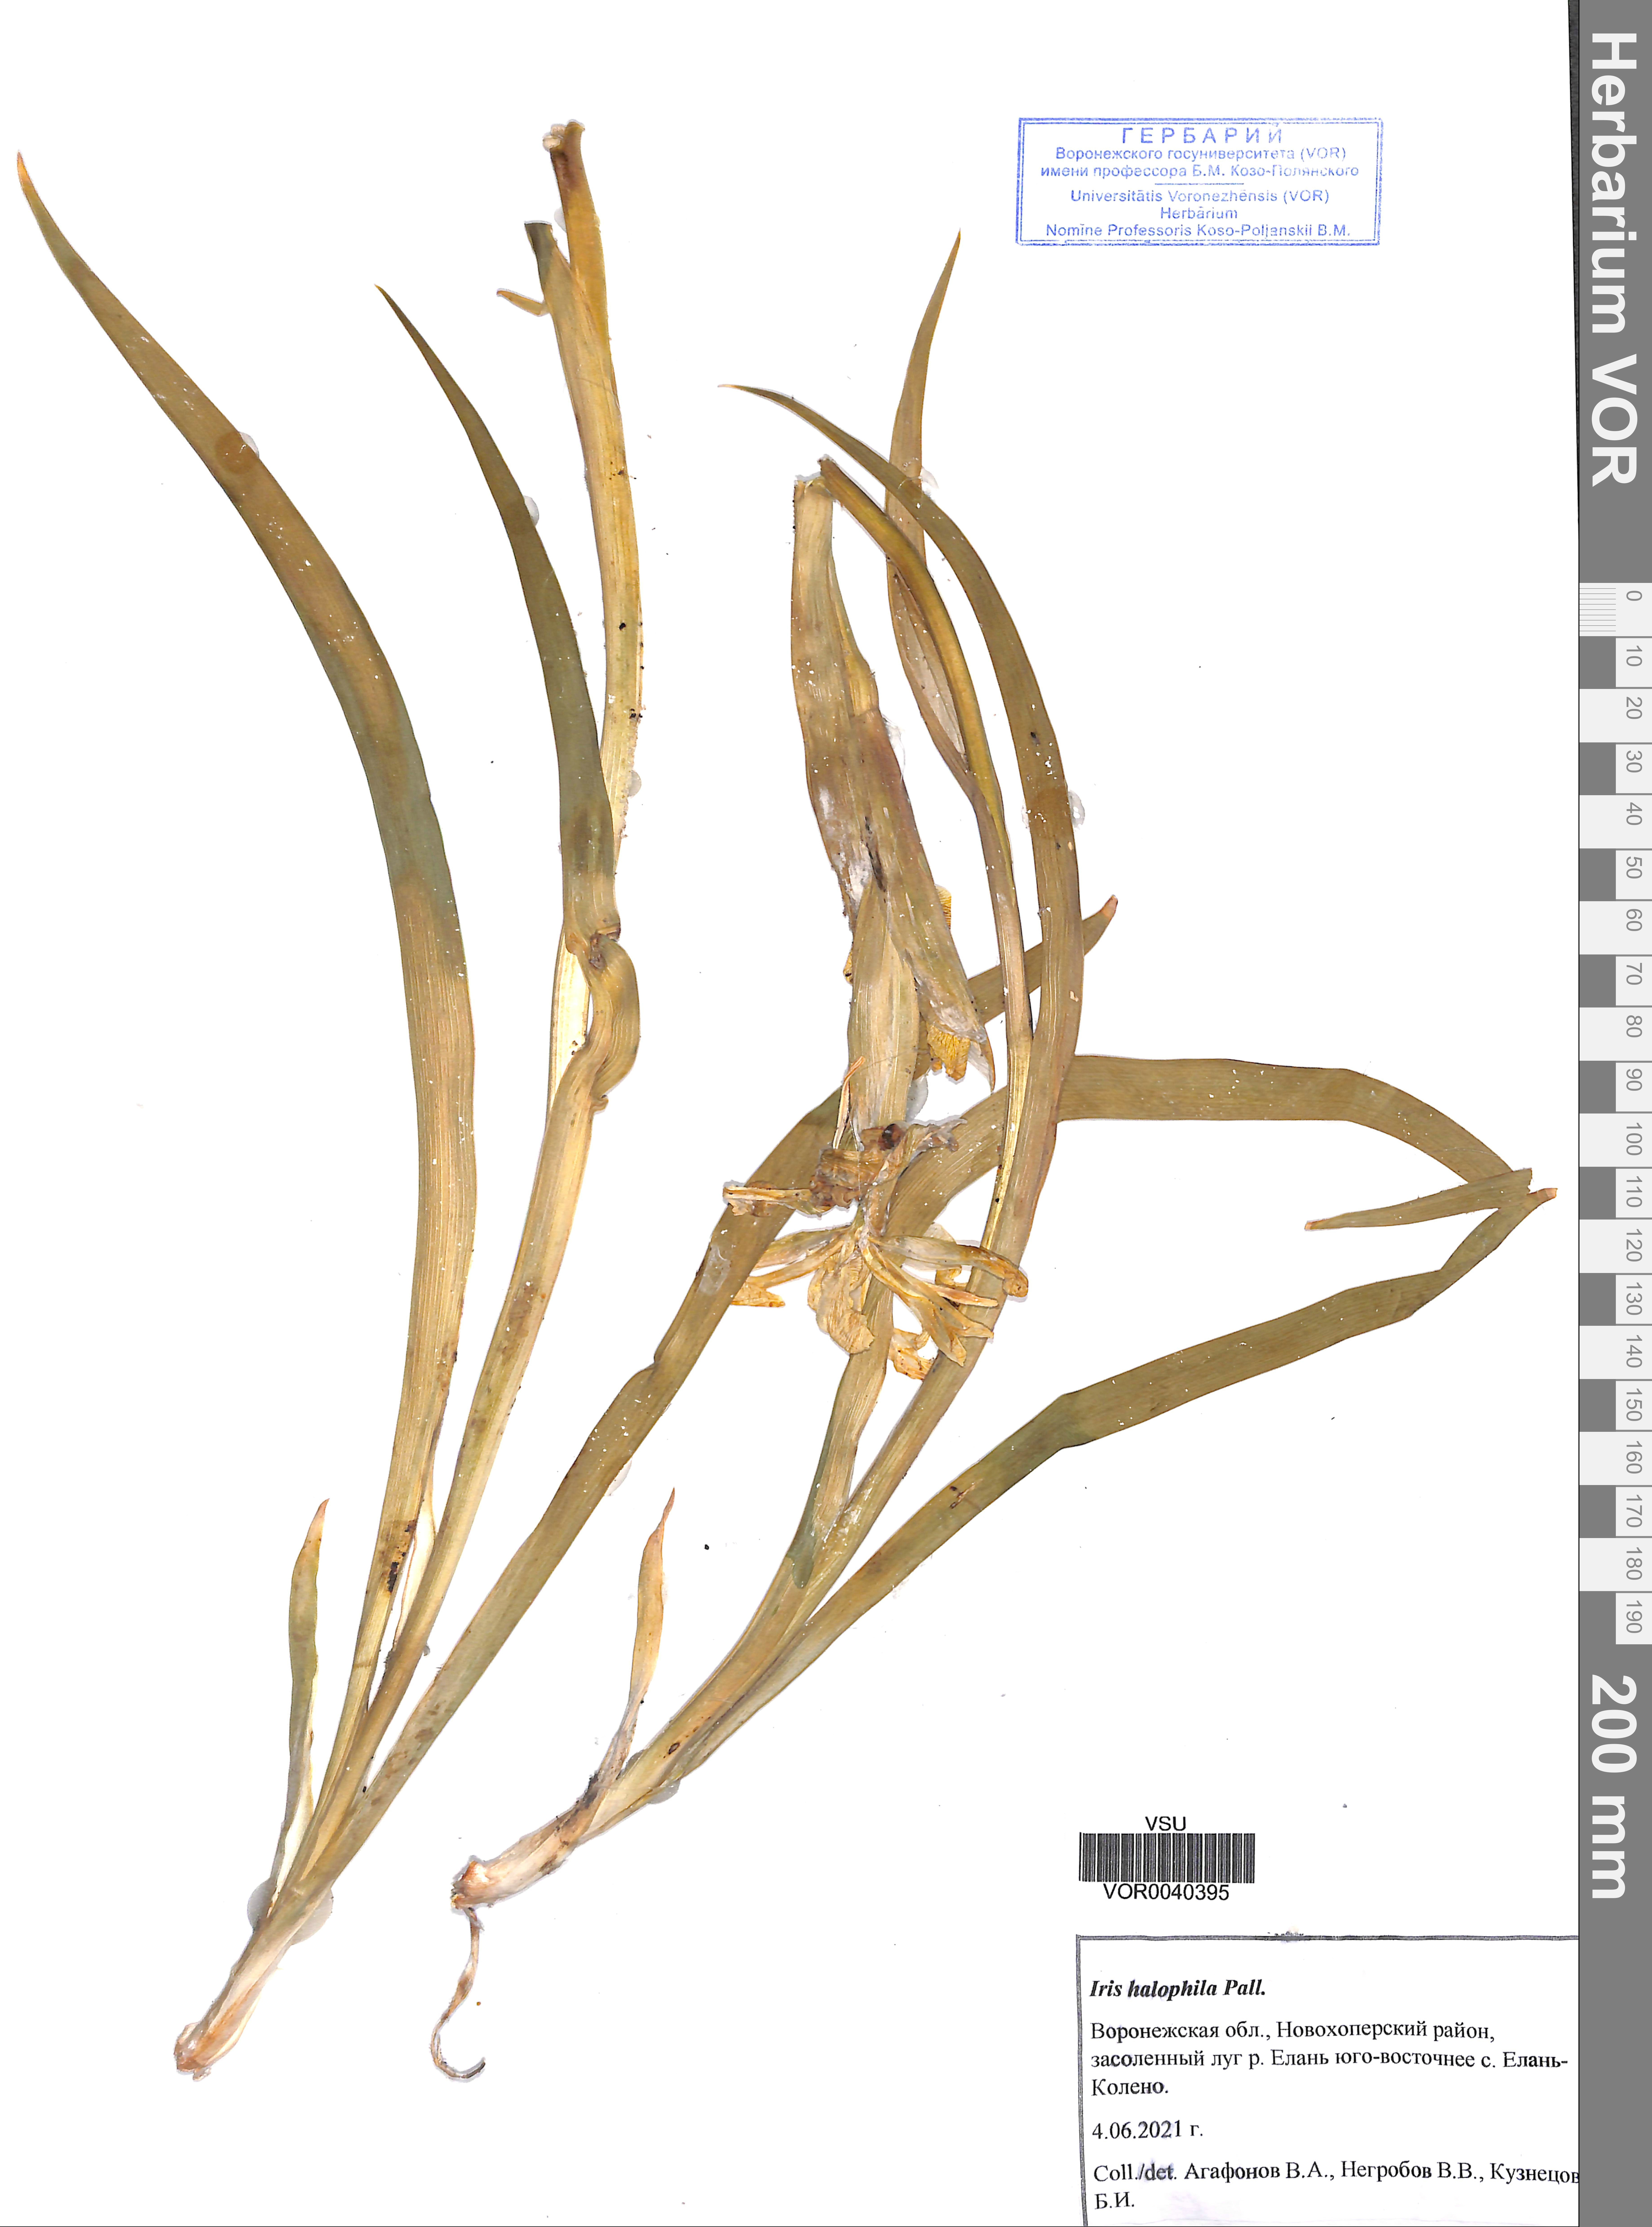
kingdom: Plantae
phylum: Tracheophyta
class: Liliopsida
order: Asparagales
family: Iridaceae
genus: Iris
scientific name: Iris halophila
